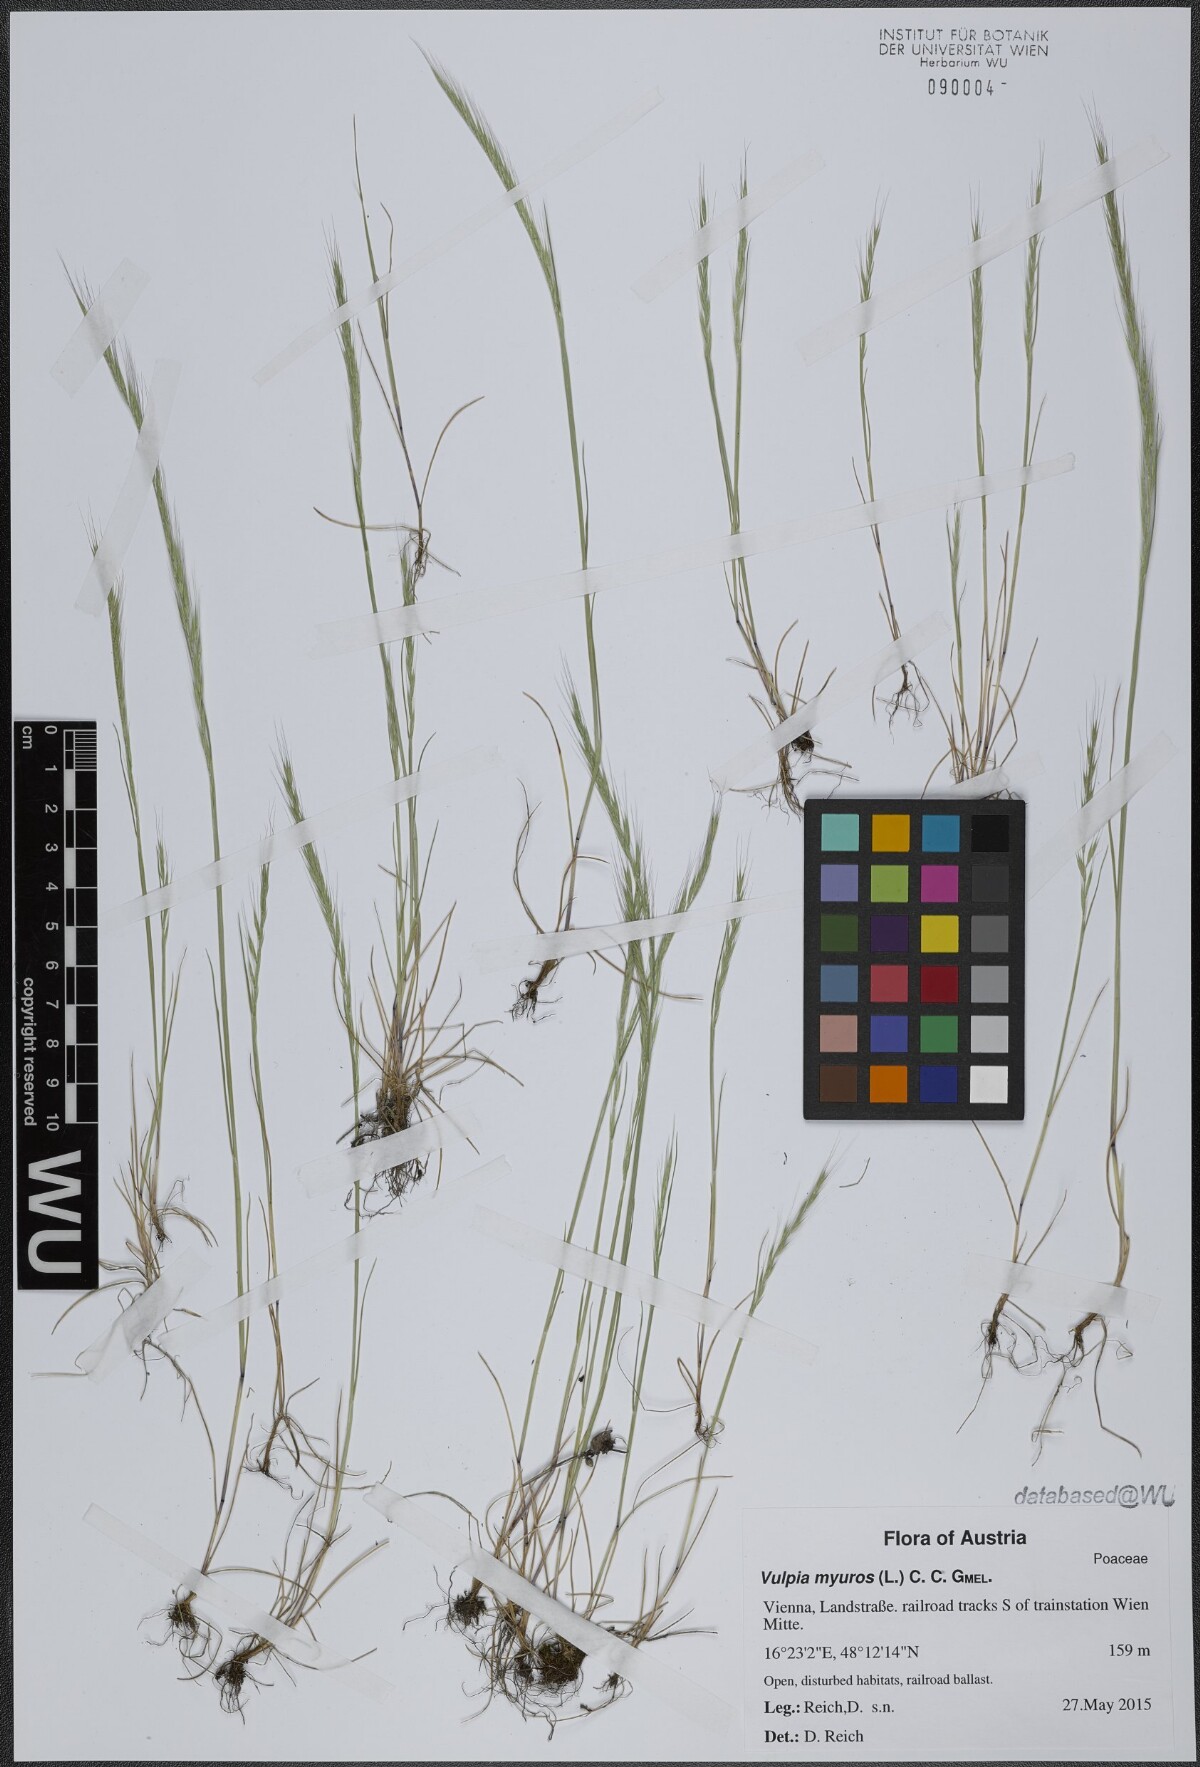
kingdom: Plantae
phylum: Tracheophyta
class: Liliopsida
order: Poales
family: Poaceae
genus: Festuca
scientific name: Festuca myuros
